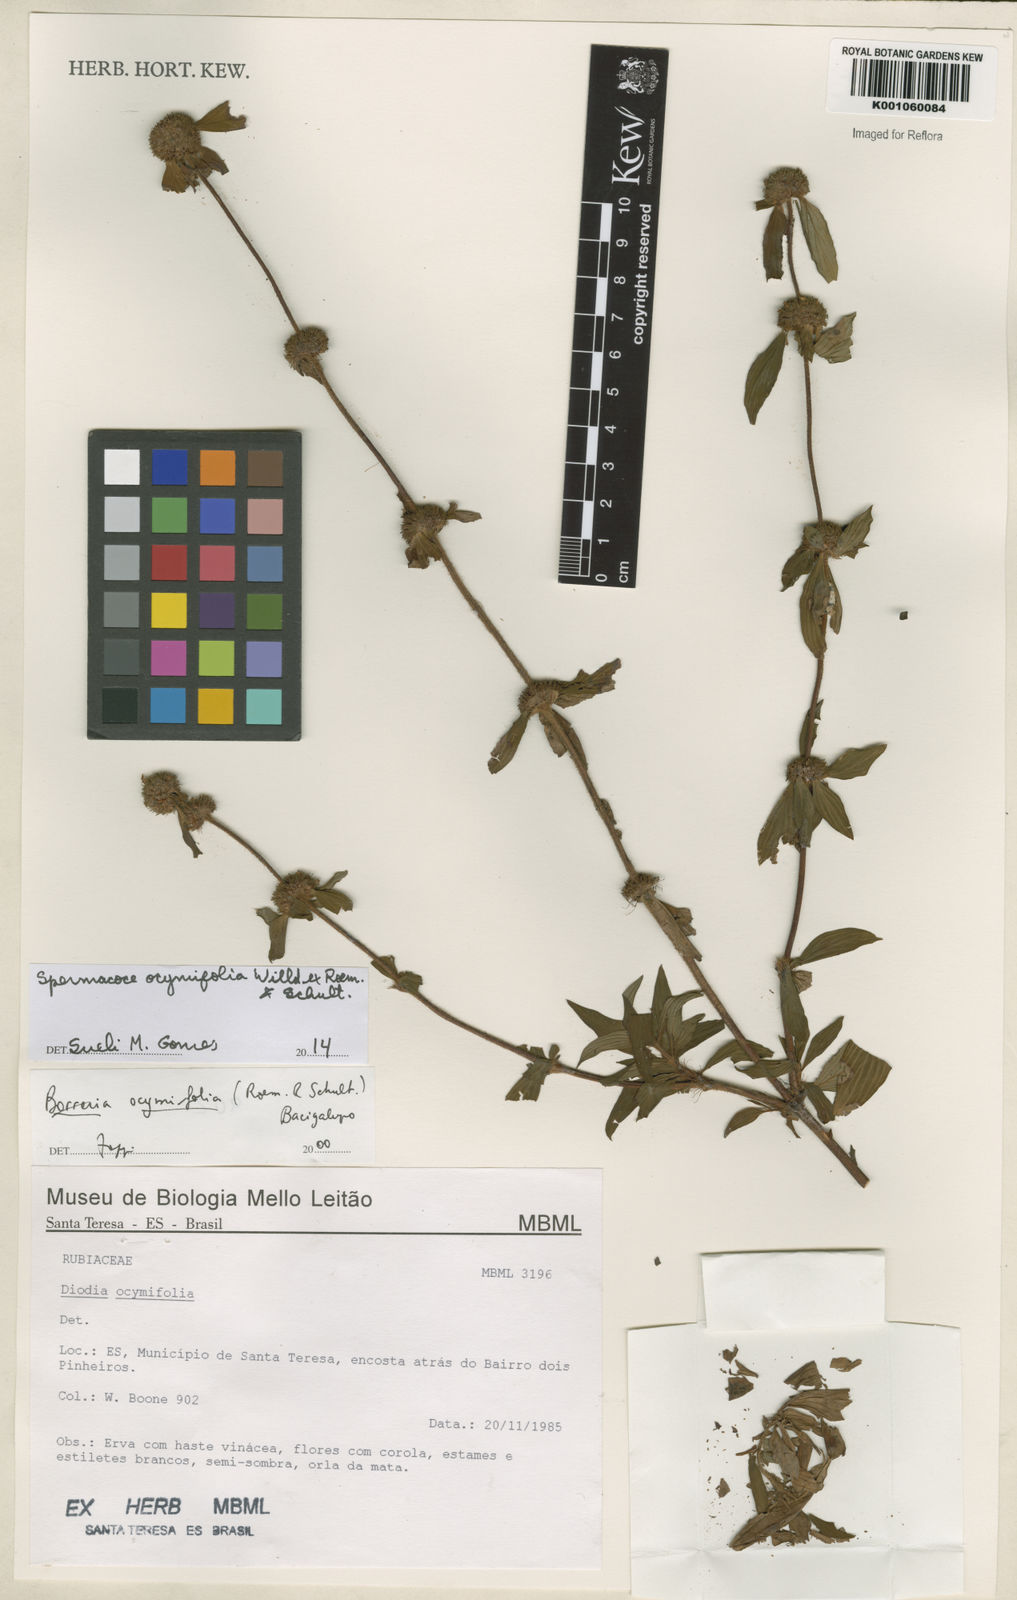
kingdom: Plantae
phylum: Tracheophyta
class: Magnoliopsida
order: Gentianales
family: Rubiaceae
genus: Spermacoce
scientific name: Spermacoce
